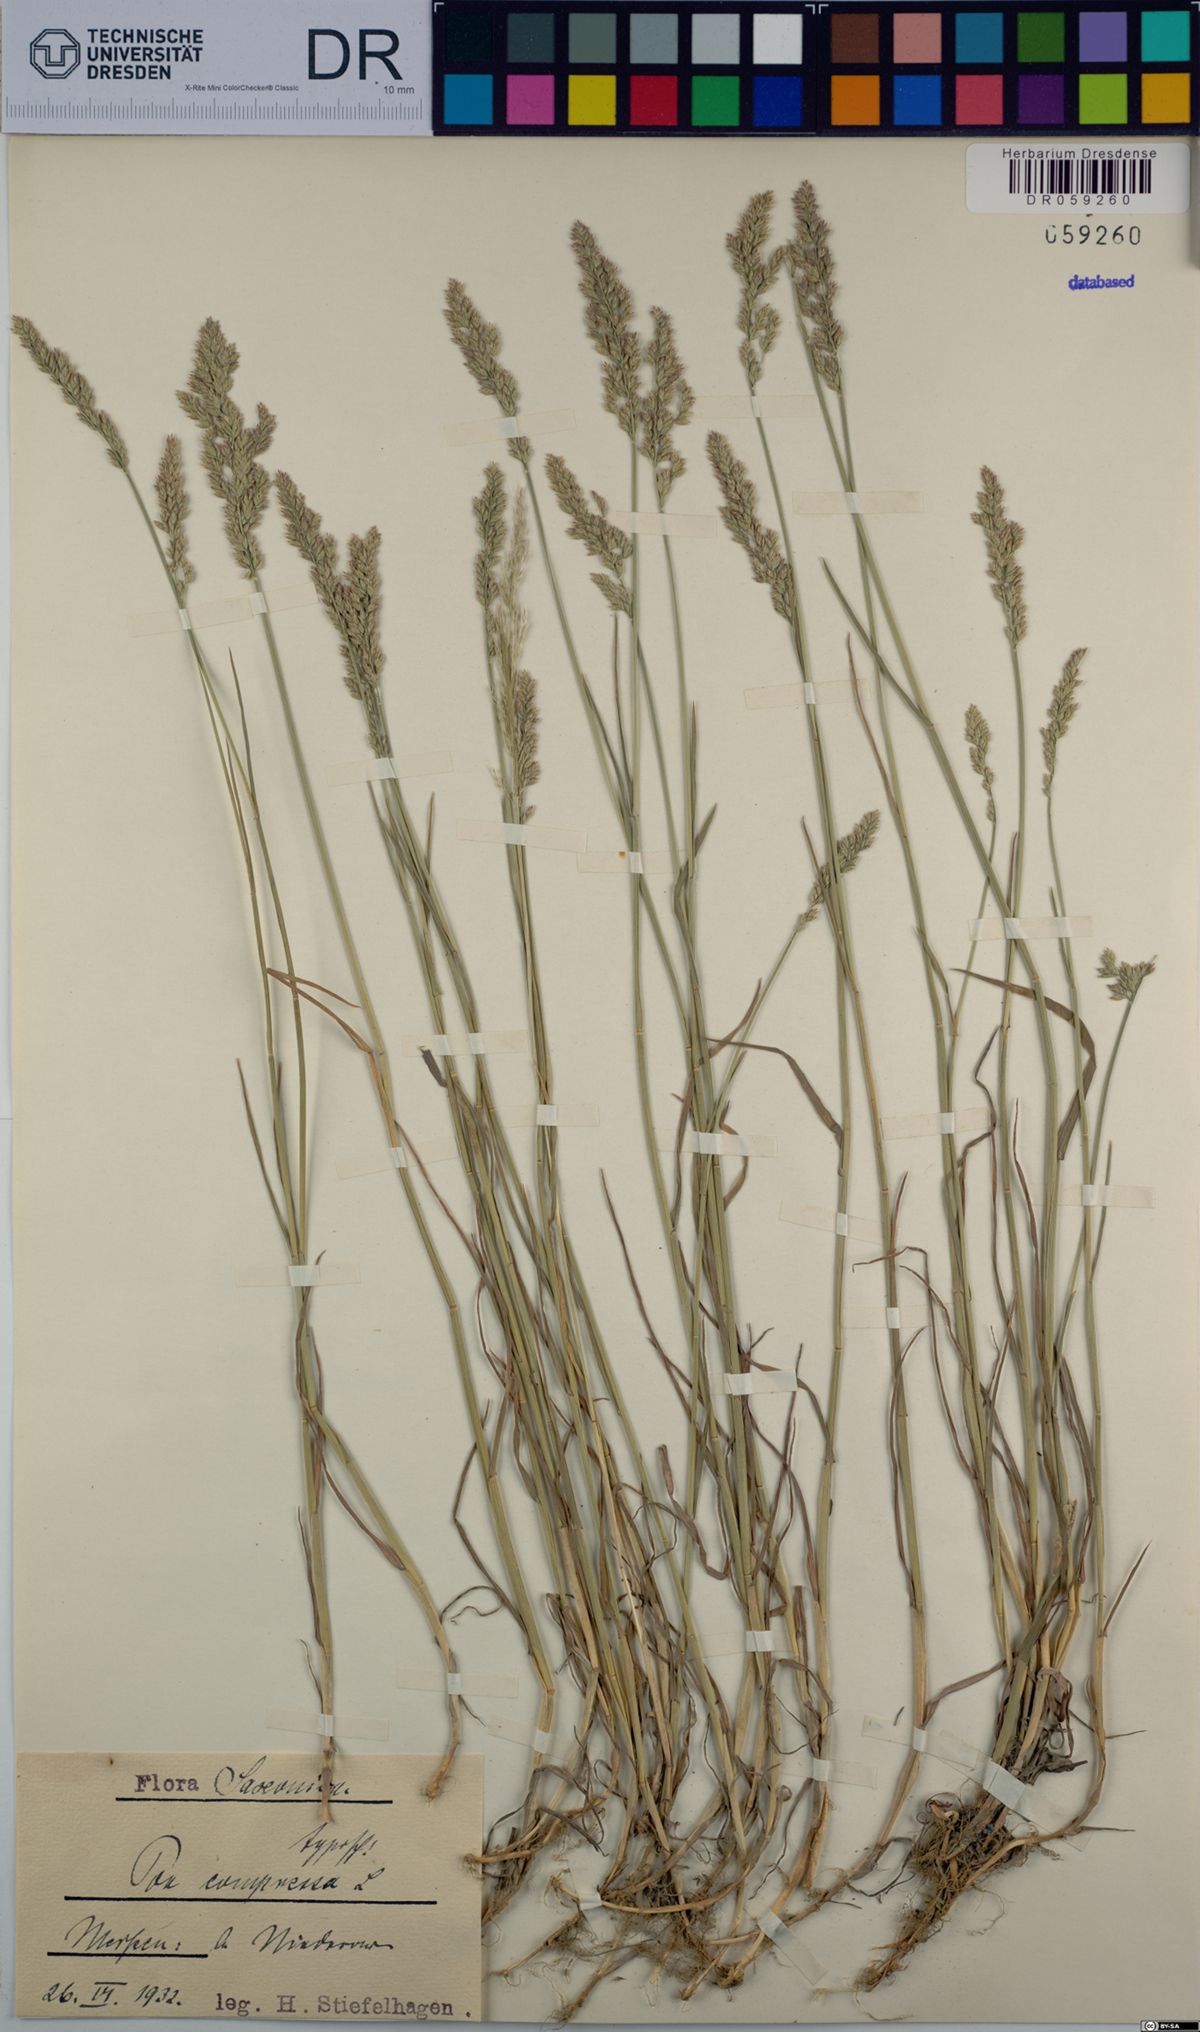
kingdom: Plantae
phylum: Tracheophyta
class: Liliopsida
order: Poales
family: Poaceae
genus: Poa
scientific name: Poa compressa
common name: Canada bluegrass
